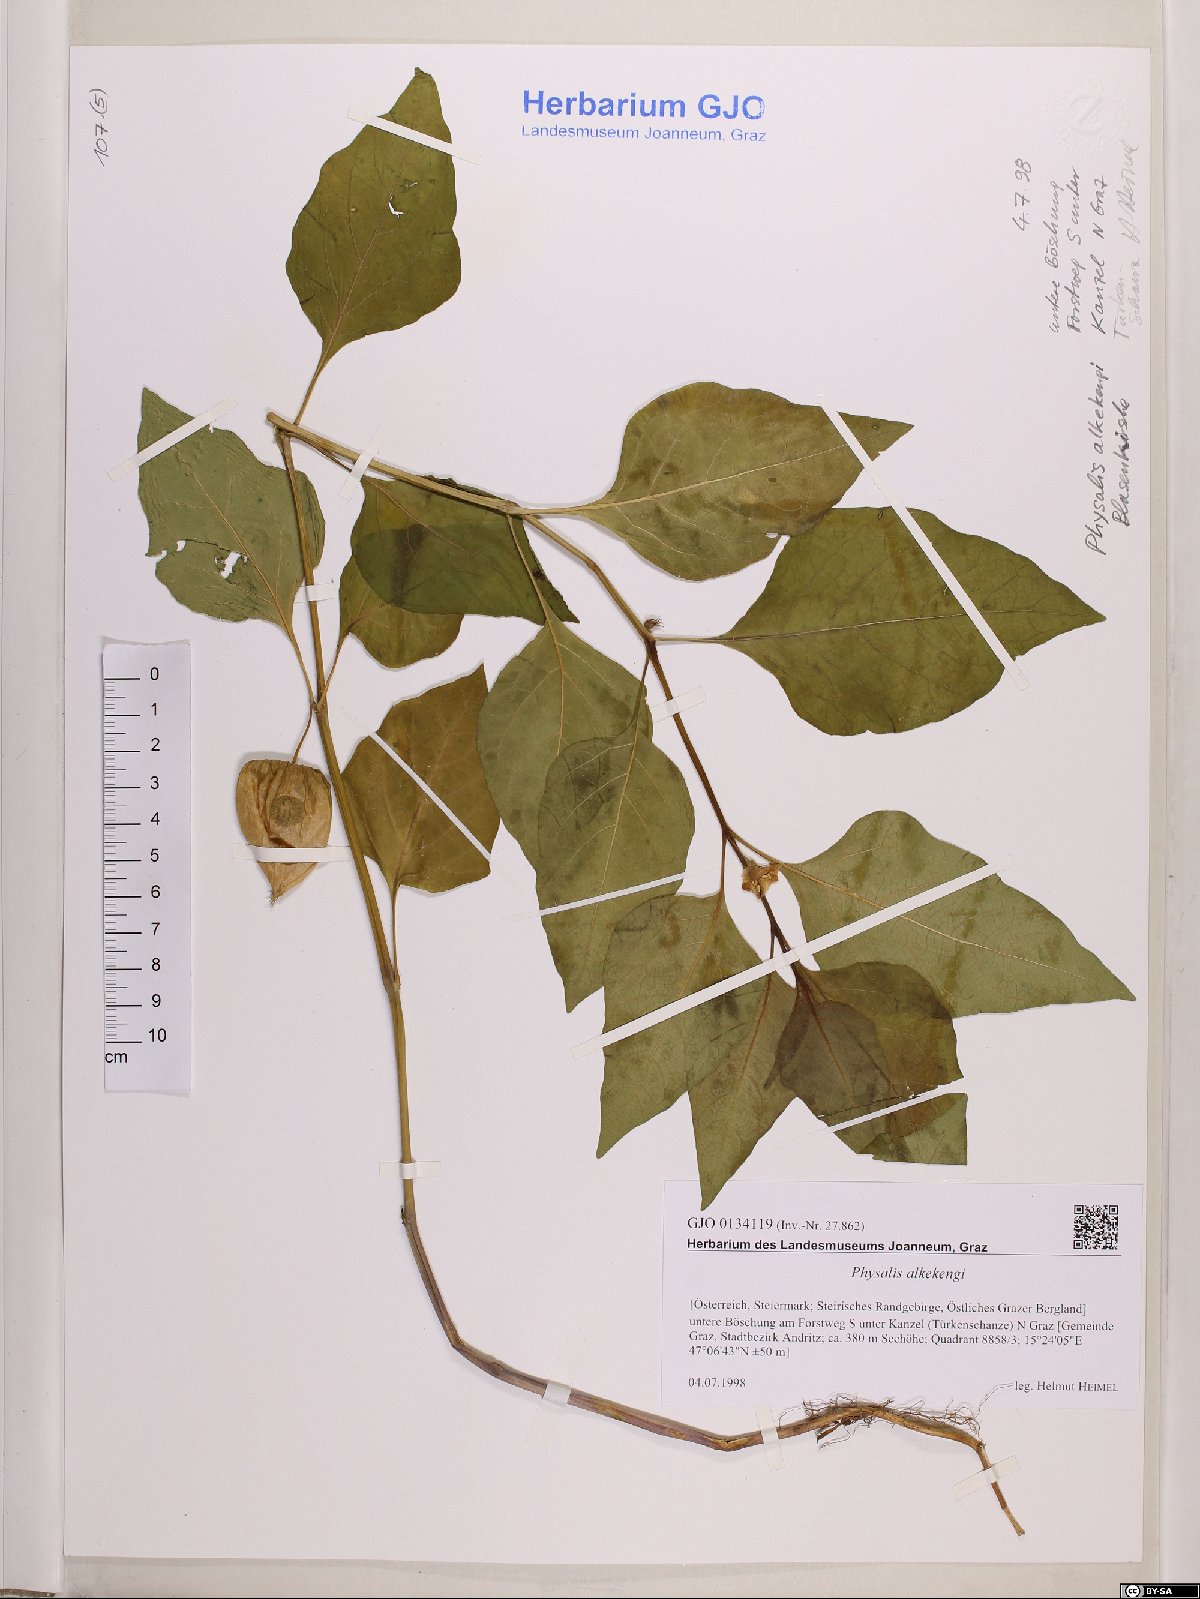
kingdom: Plantae
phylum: Tracheophyta
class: Magnoliopsida
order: Solanales
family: Solanaceae
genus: Alkekengi
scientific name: Alkekengi officinarum
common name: Japanese-lantern
